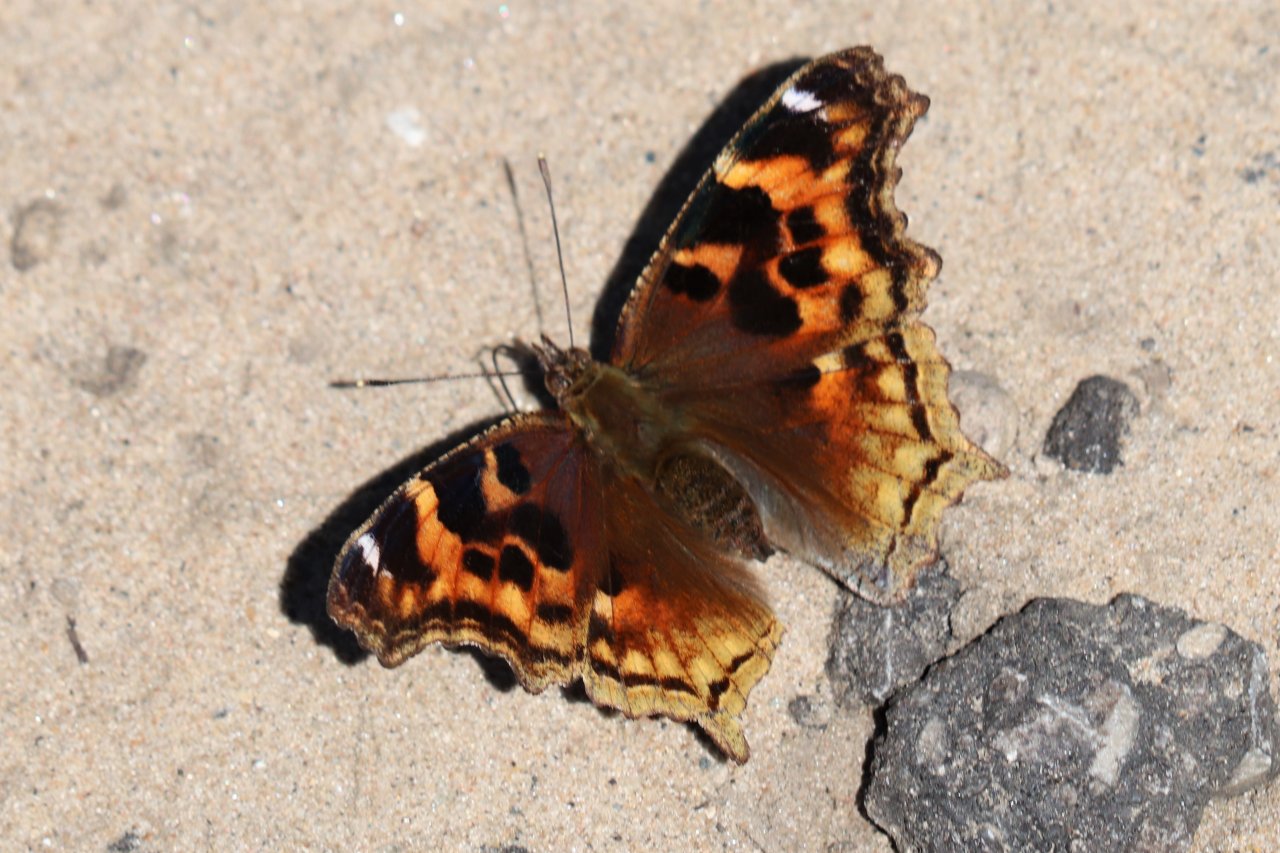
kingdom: Animalia
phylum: Arthropoda
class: Insecta
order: Lepidoptera
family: Nymphalidae
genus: Polygonia
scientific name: Polygonia vaualbum
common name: Compton Tortoiseshell
